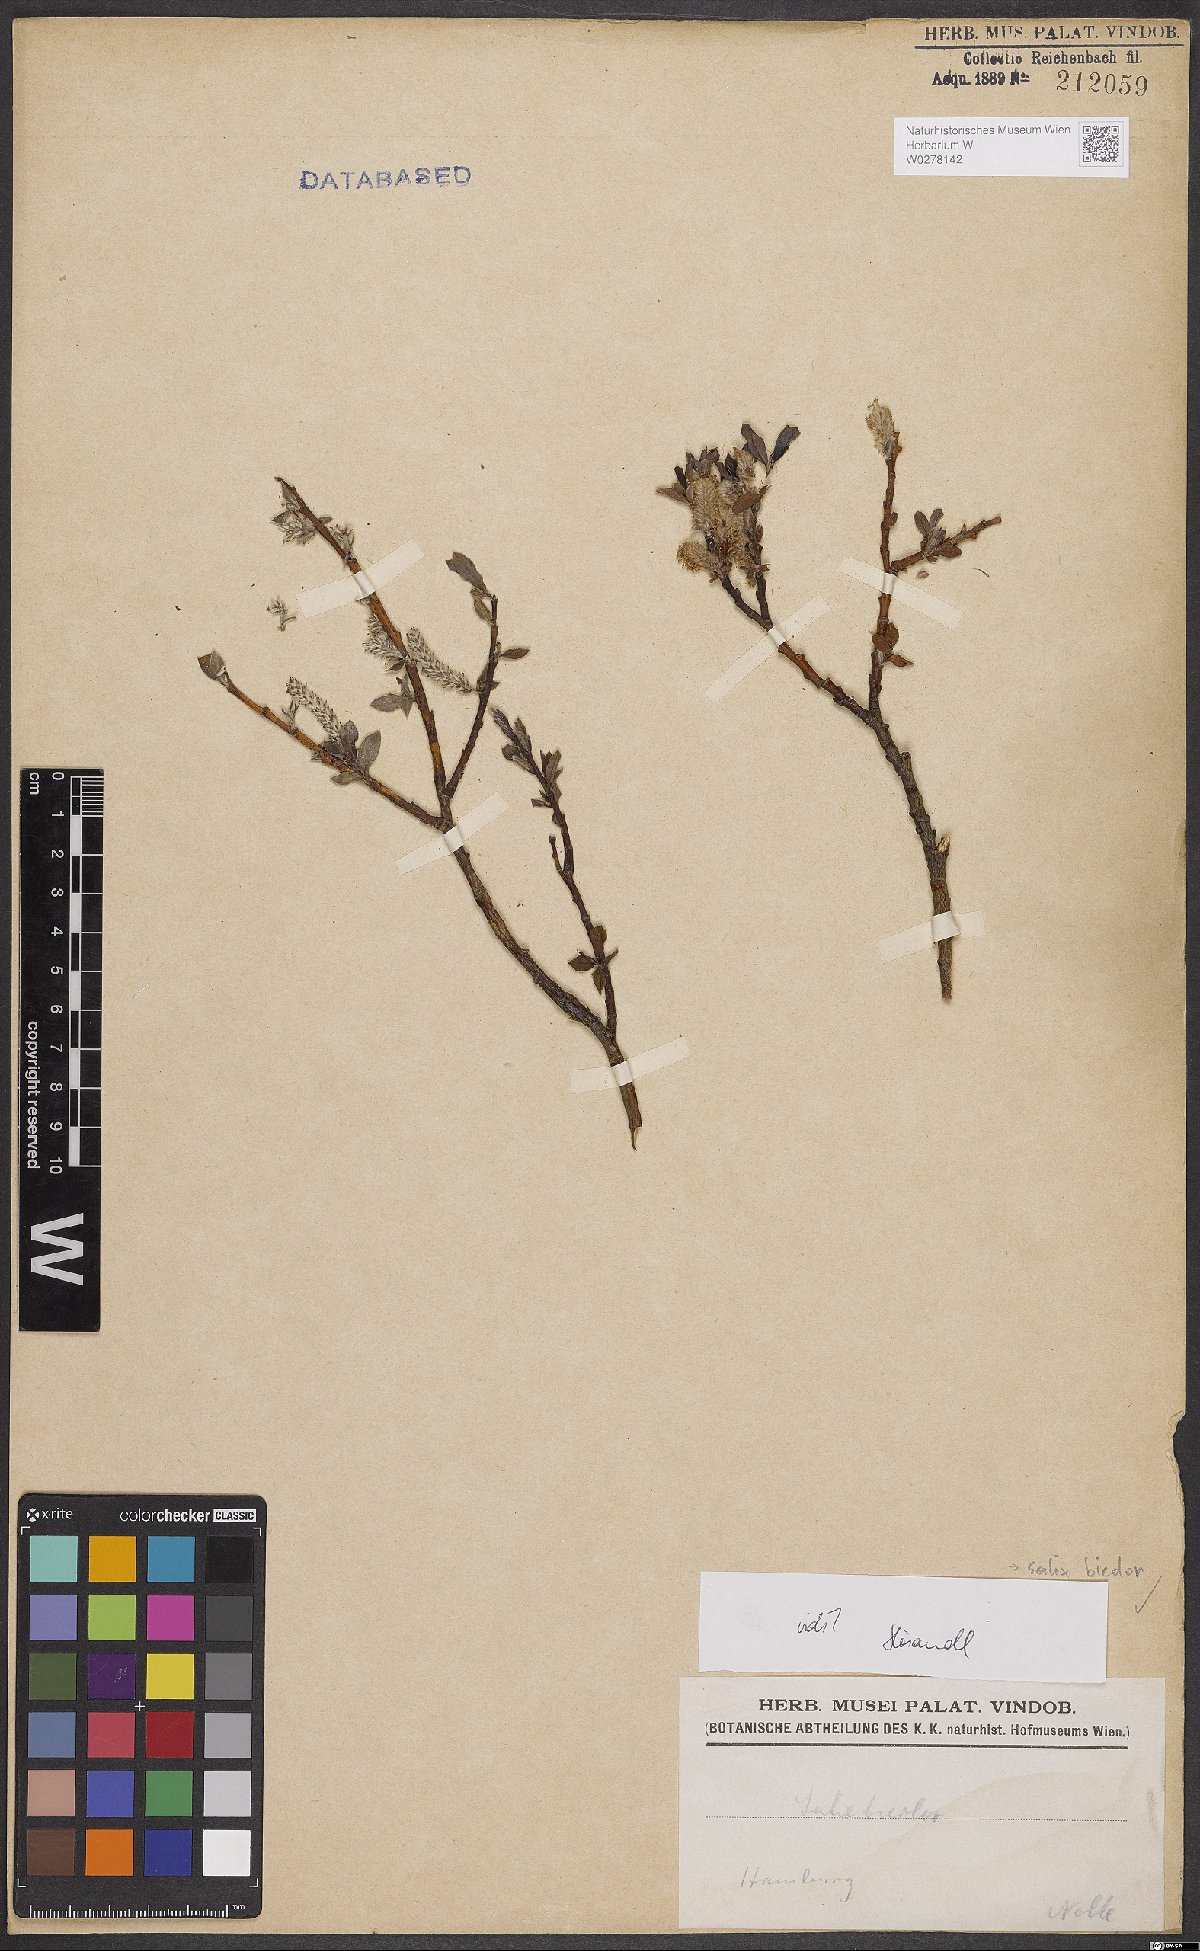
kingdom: Plantae
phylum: Tracheophyta
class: Magnoliopsida
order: Malpighiales
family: Salicaceae
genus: Salix
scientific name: Salix bicolor
